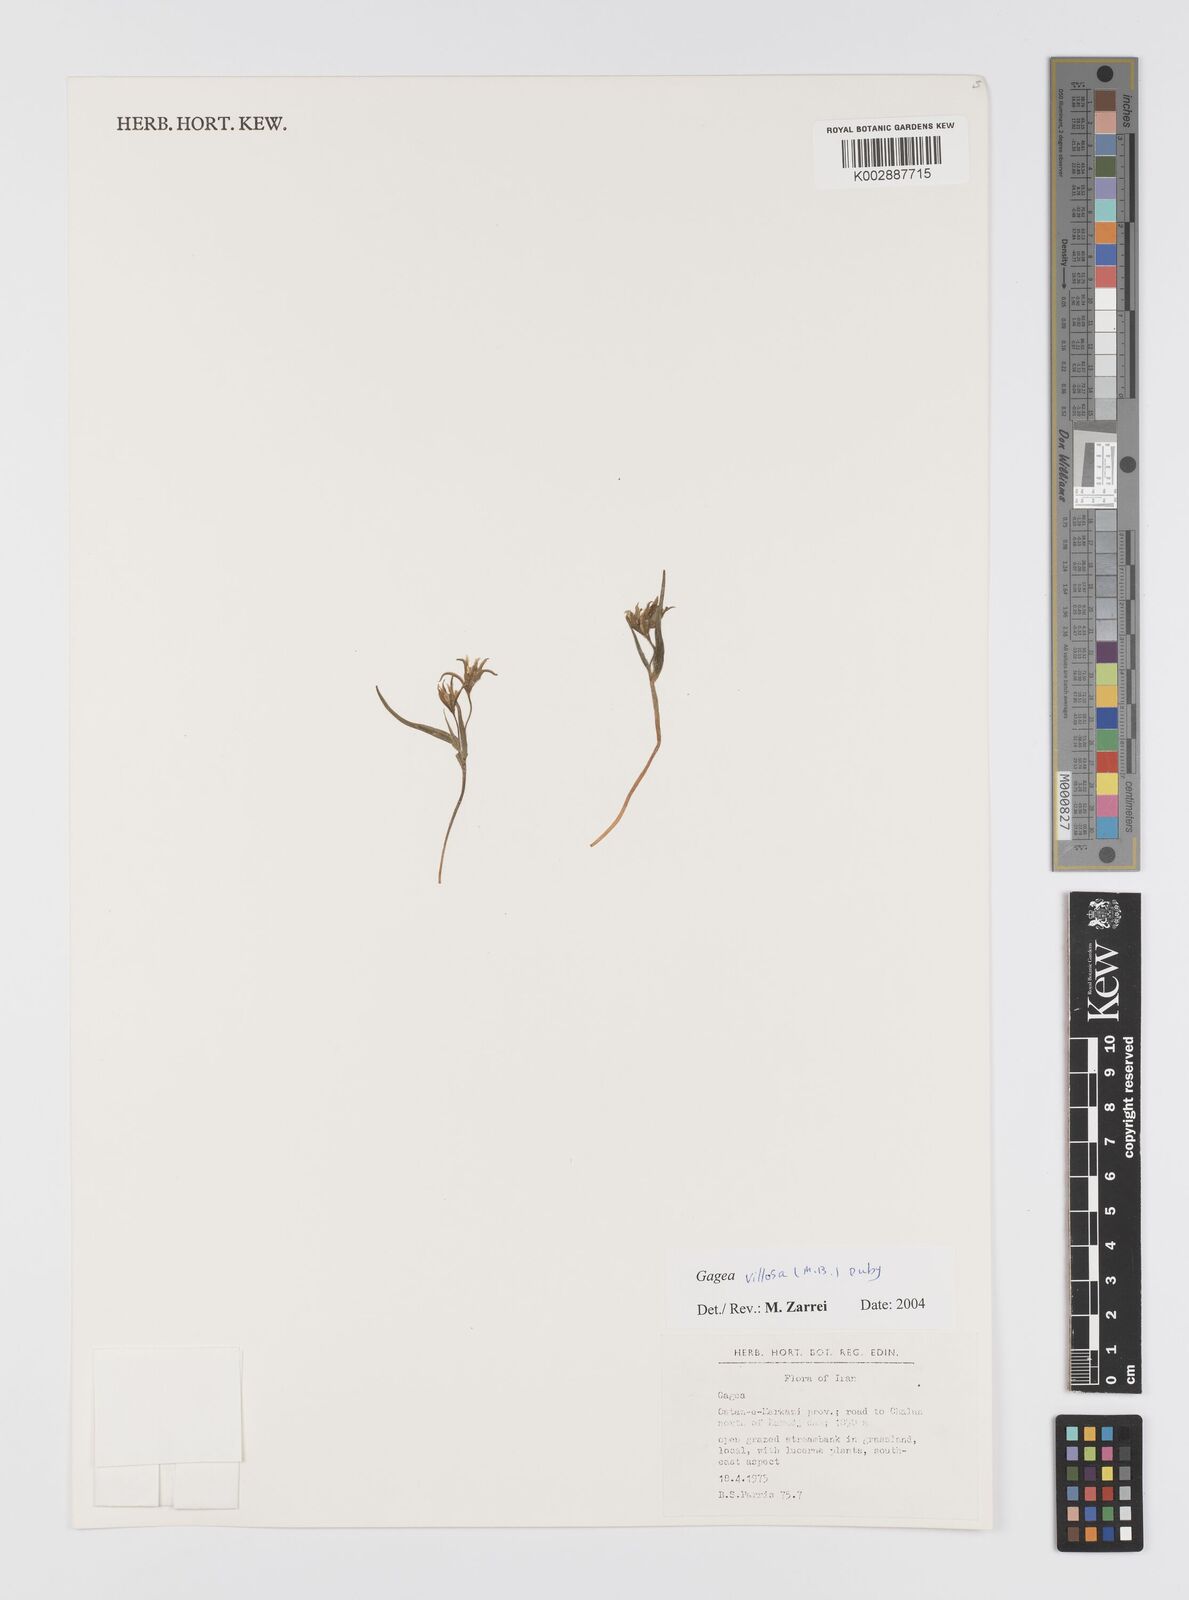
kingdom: Plantae
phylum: Tracheophyta
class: Liliopsida
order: Liliales
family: Liliaceae
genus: Gagea
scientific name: Gagea villosa
